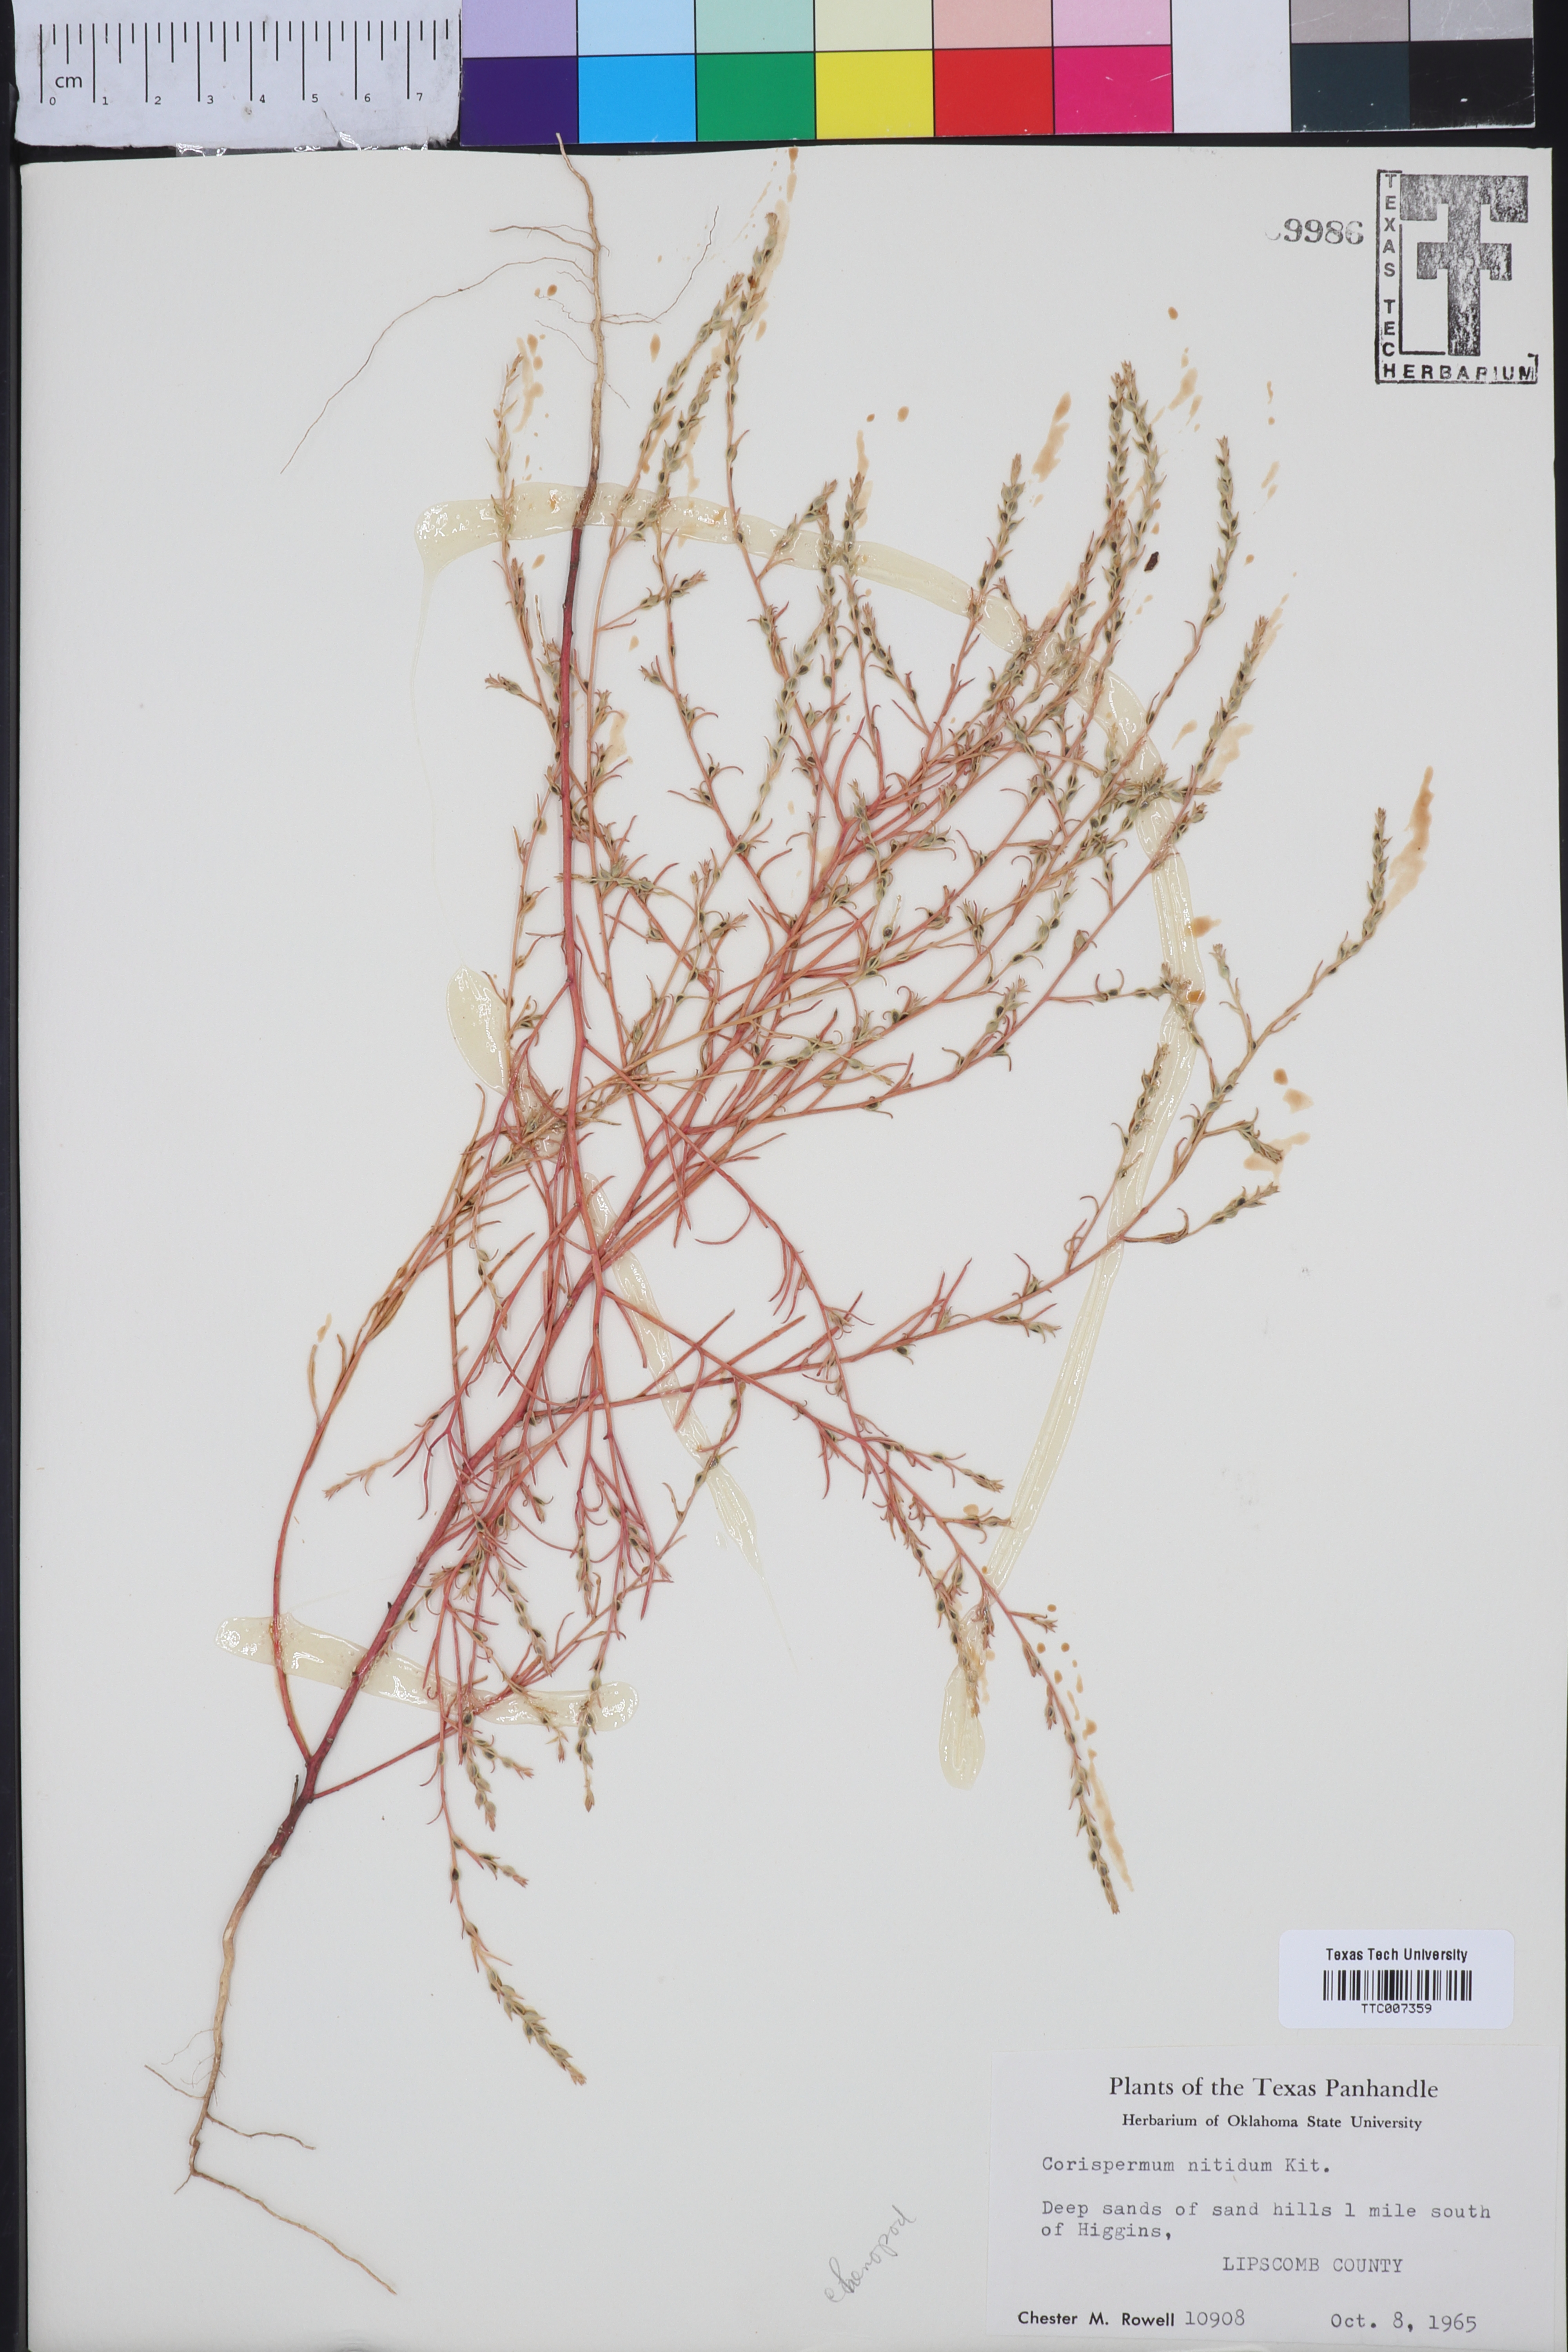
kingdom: Plantae
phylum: Tracheophyta
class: Magnoliopsida
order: Caryophyllales
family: Amaranthaceae
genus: Corispermum
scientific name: Corispermum nitidum
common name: Bugseed
